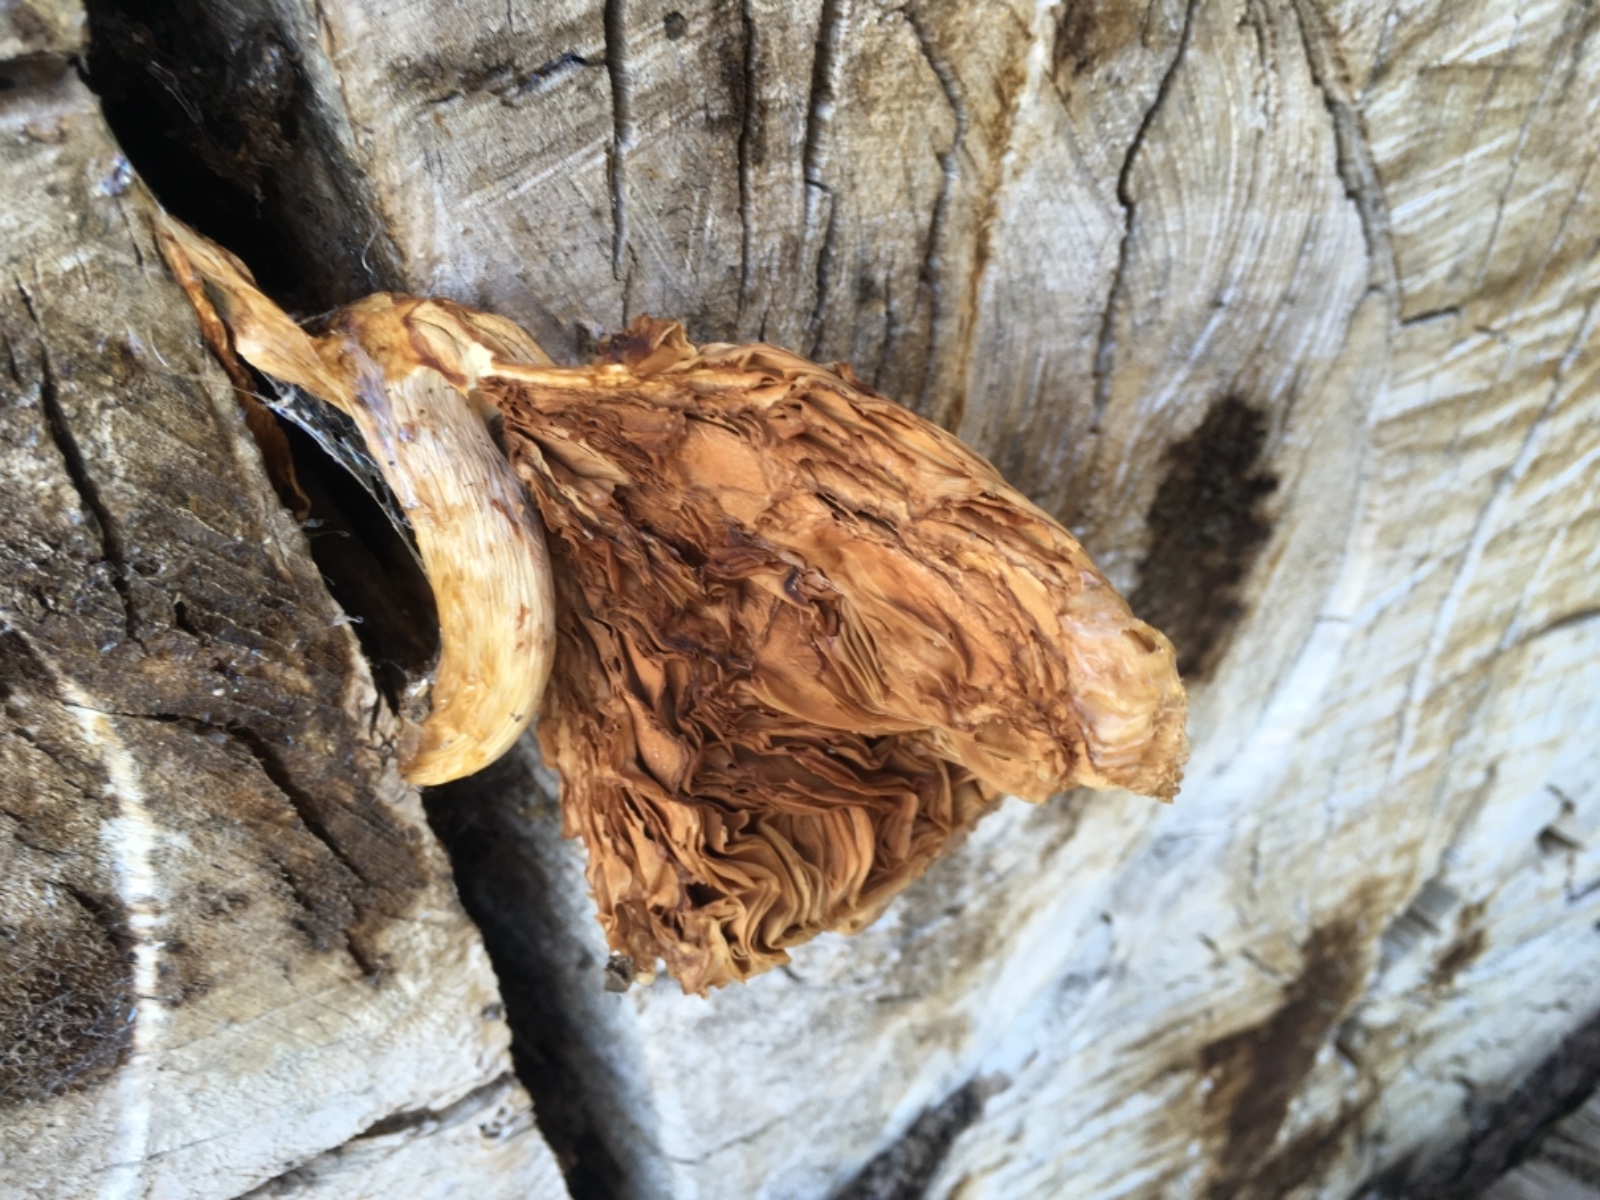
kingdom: Fungi
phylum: Basidiomycota
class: Agaricomycetes
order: Agaricales
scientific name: Agaricales
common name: champignonordenen
